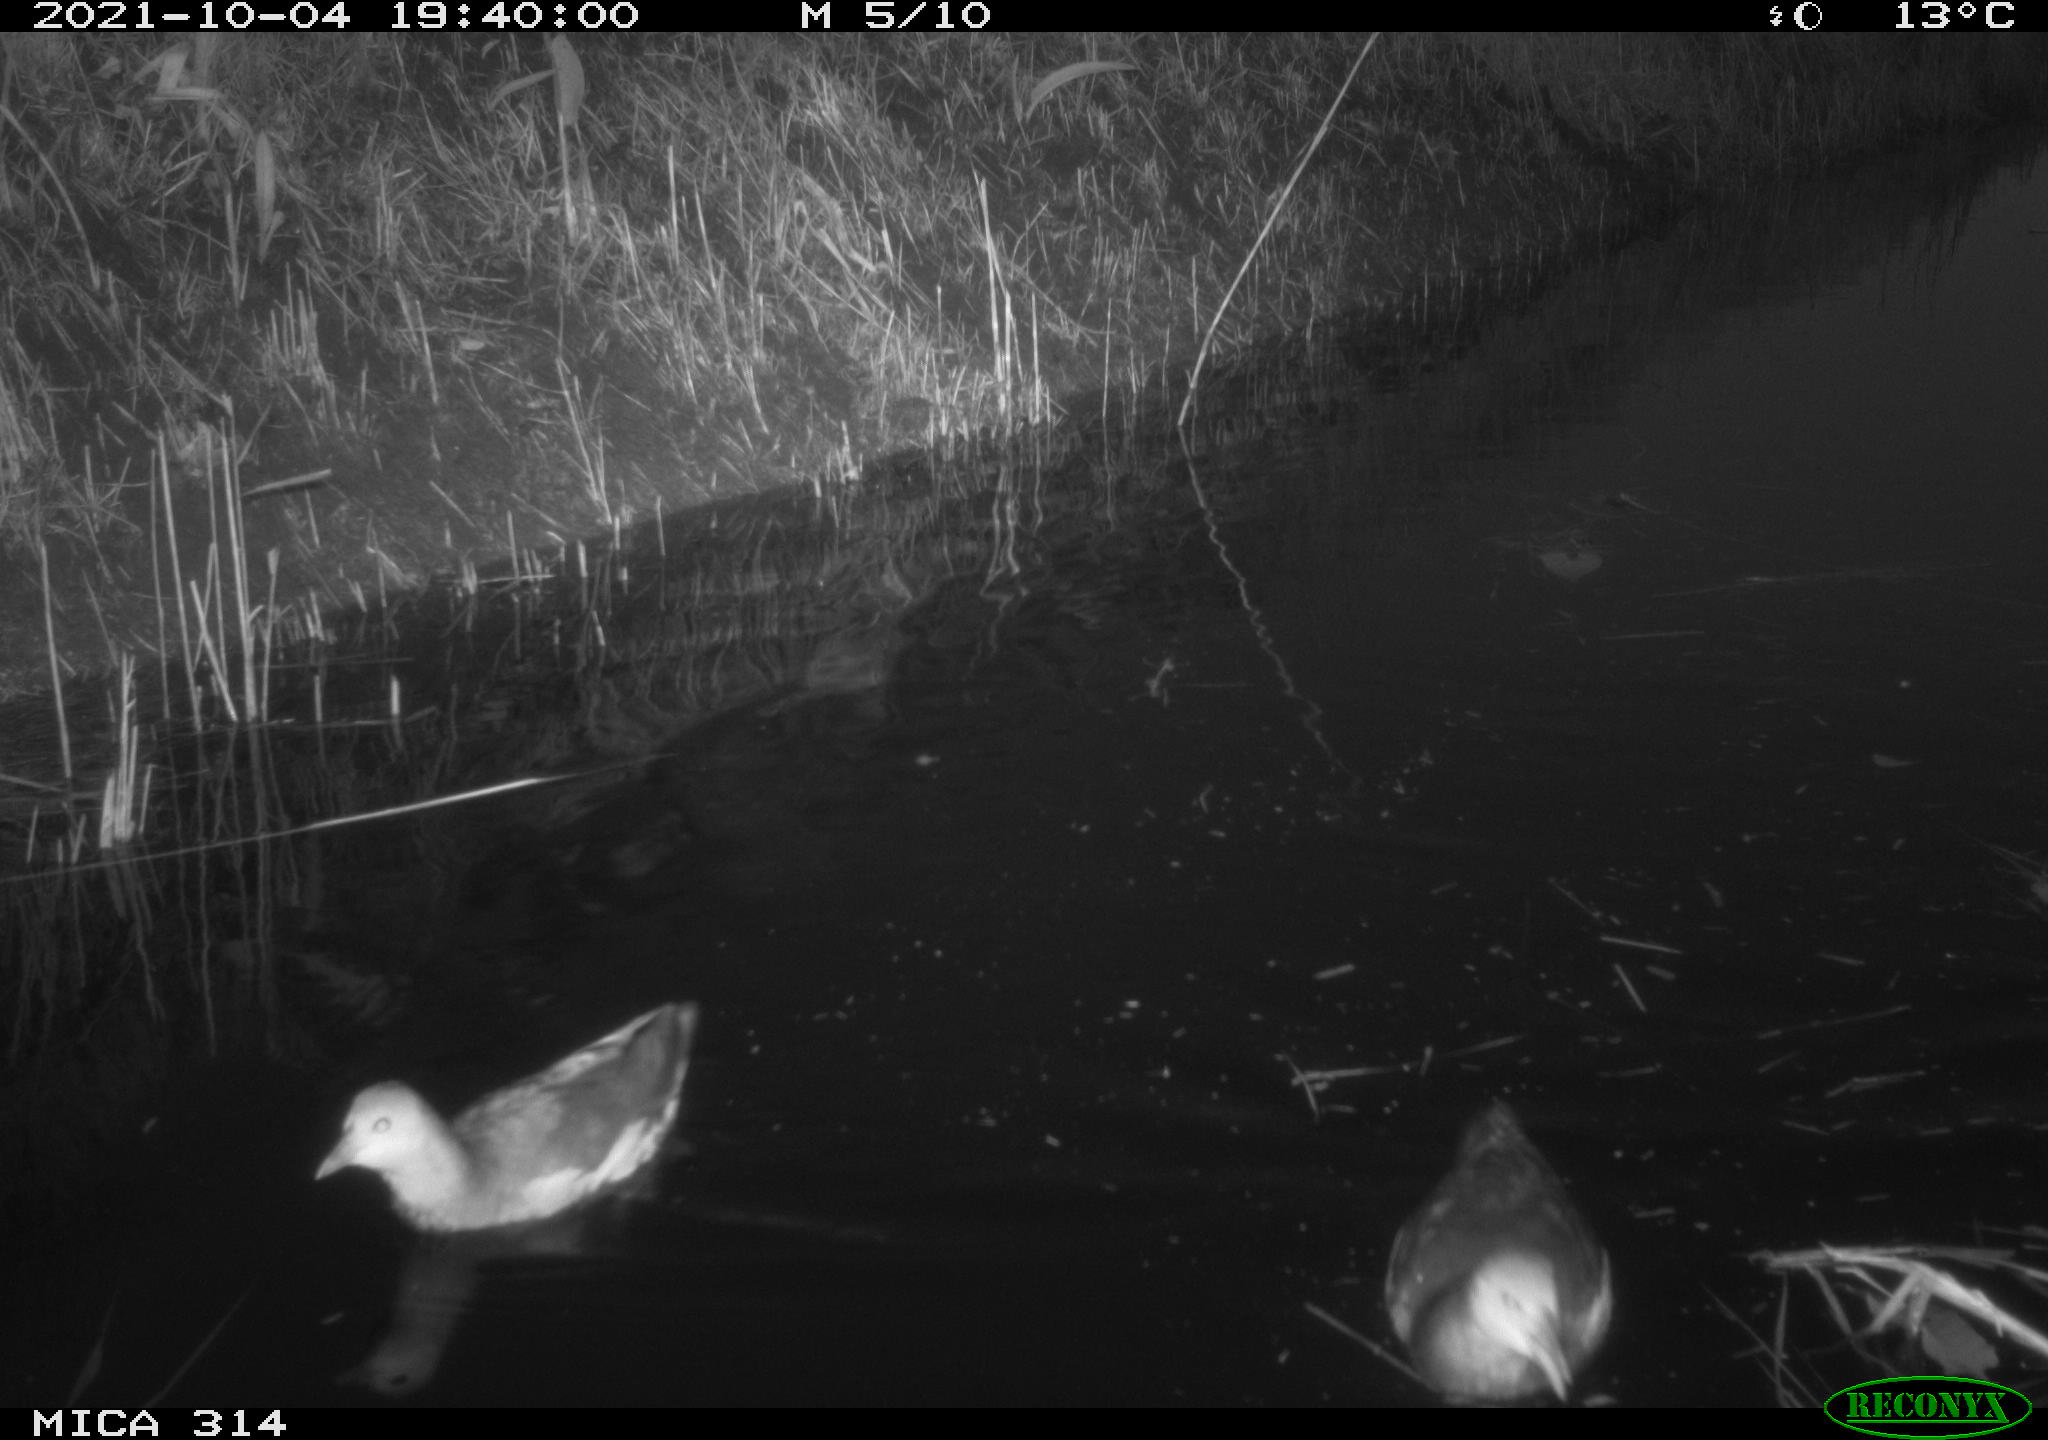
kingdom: Animalia
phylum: Chordata
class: Aves
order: Gruiformes
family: Rallidae
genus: Gallinula
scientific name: Gallinula chloropus
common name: Common moorhen
